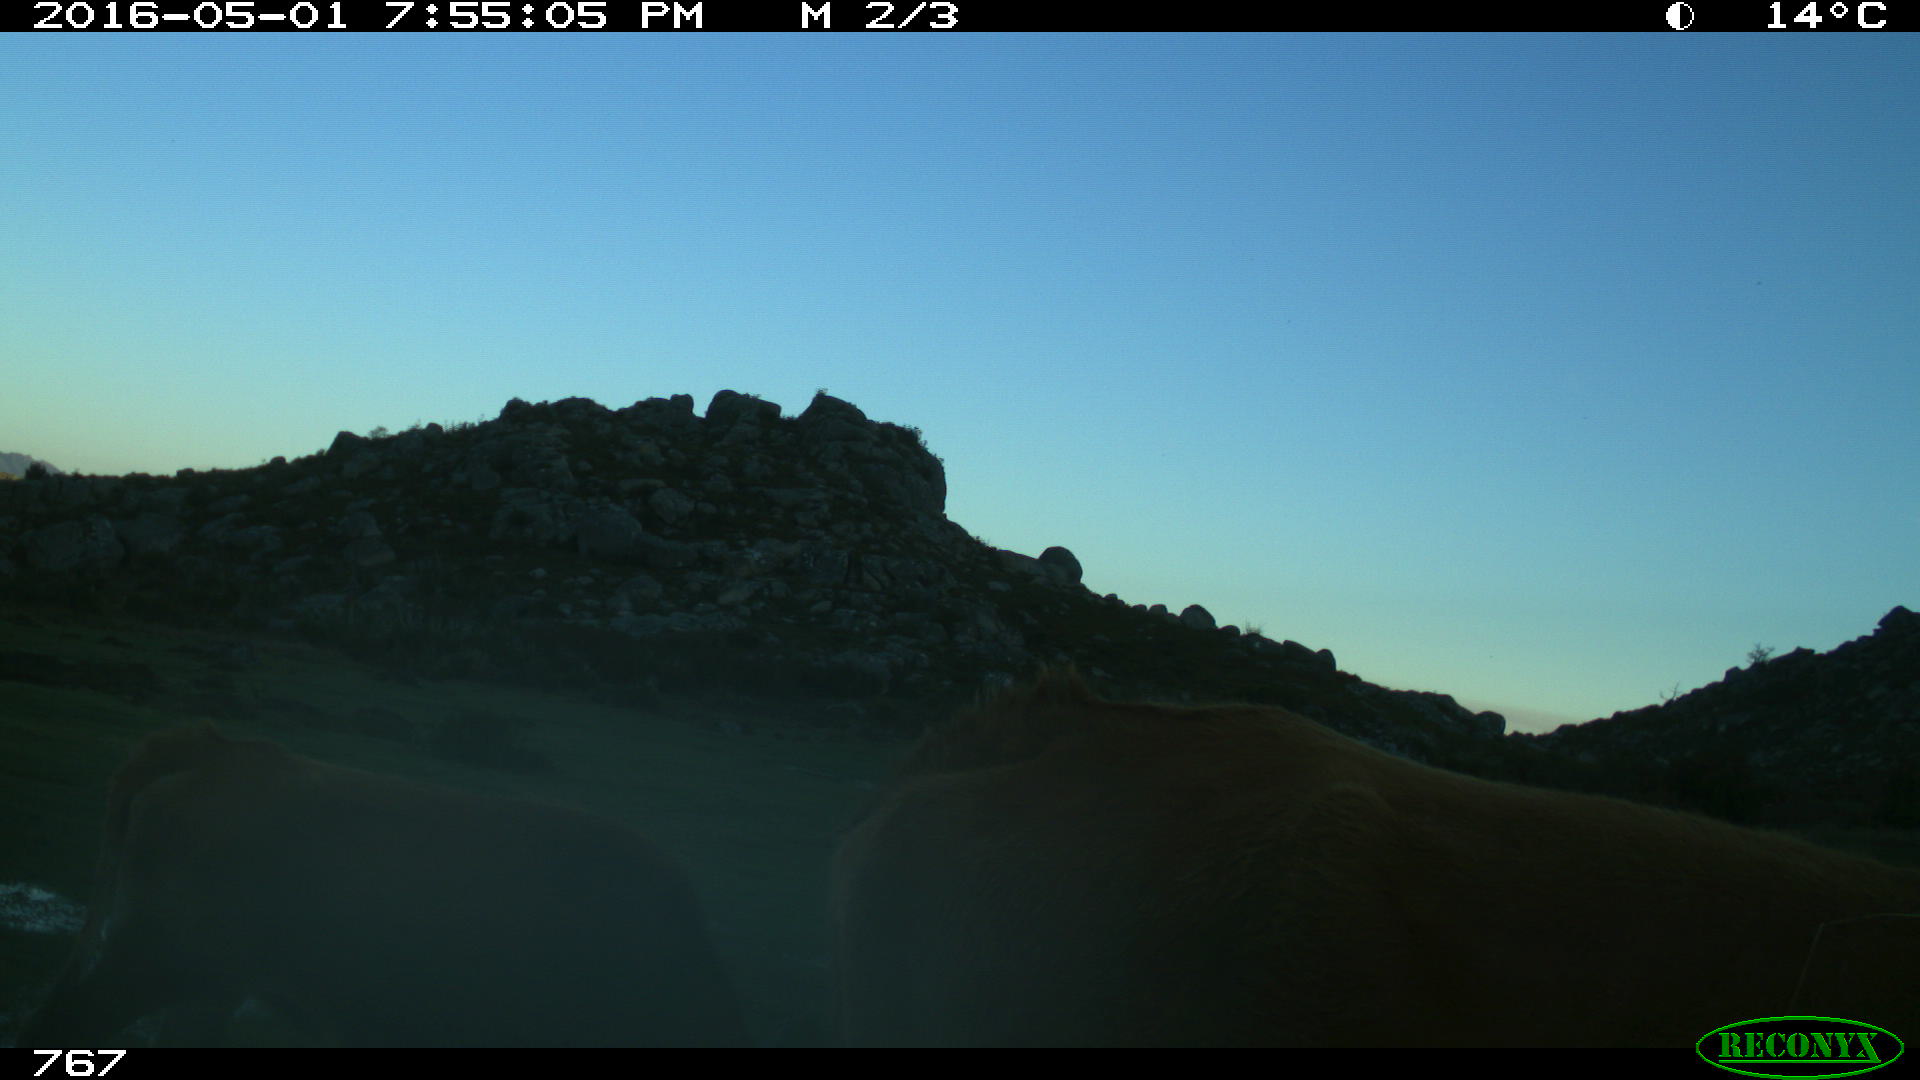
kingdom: Animalia
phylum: Chordata
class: Mammalia
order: Artiodactyla
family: Bovidae
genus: Bos
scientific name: Bos taurus
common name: Domesticated cattle
